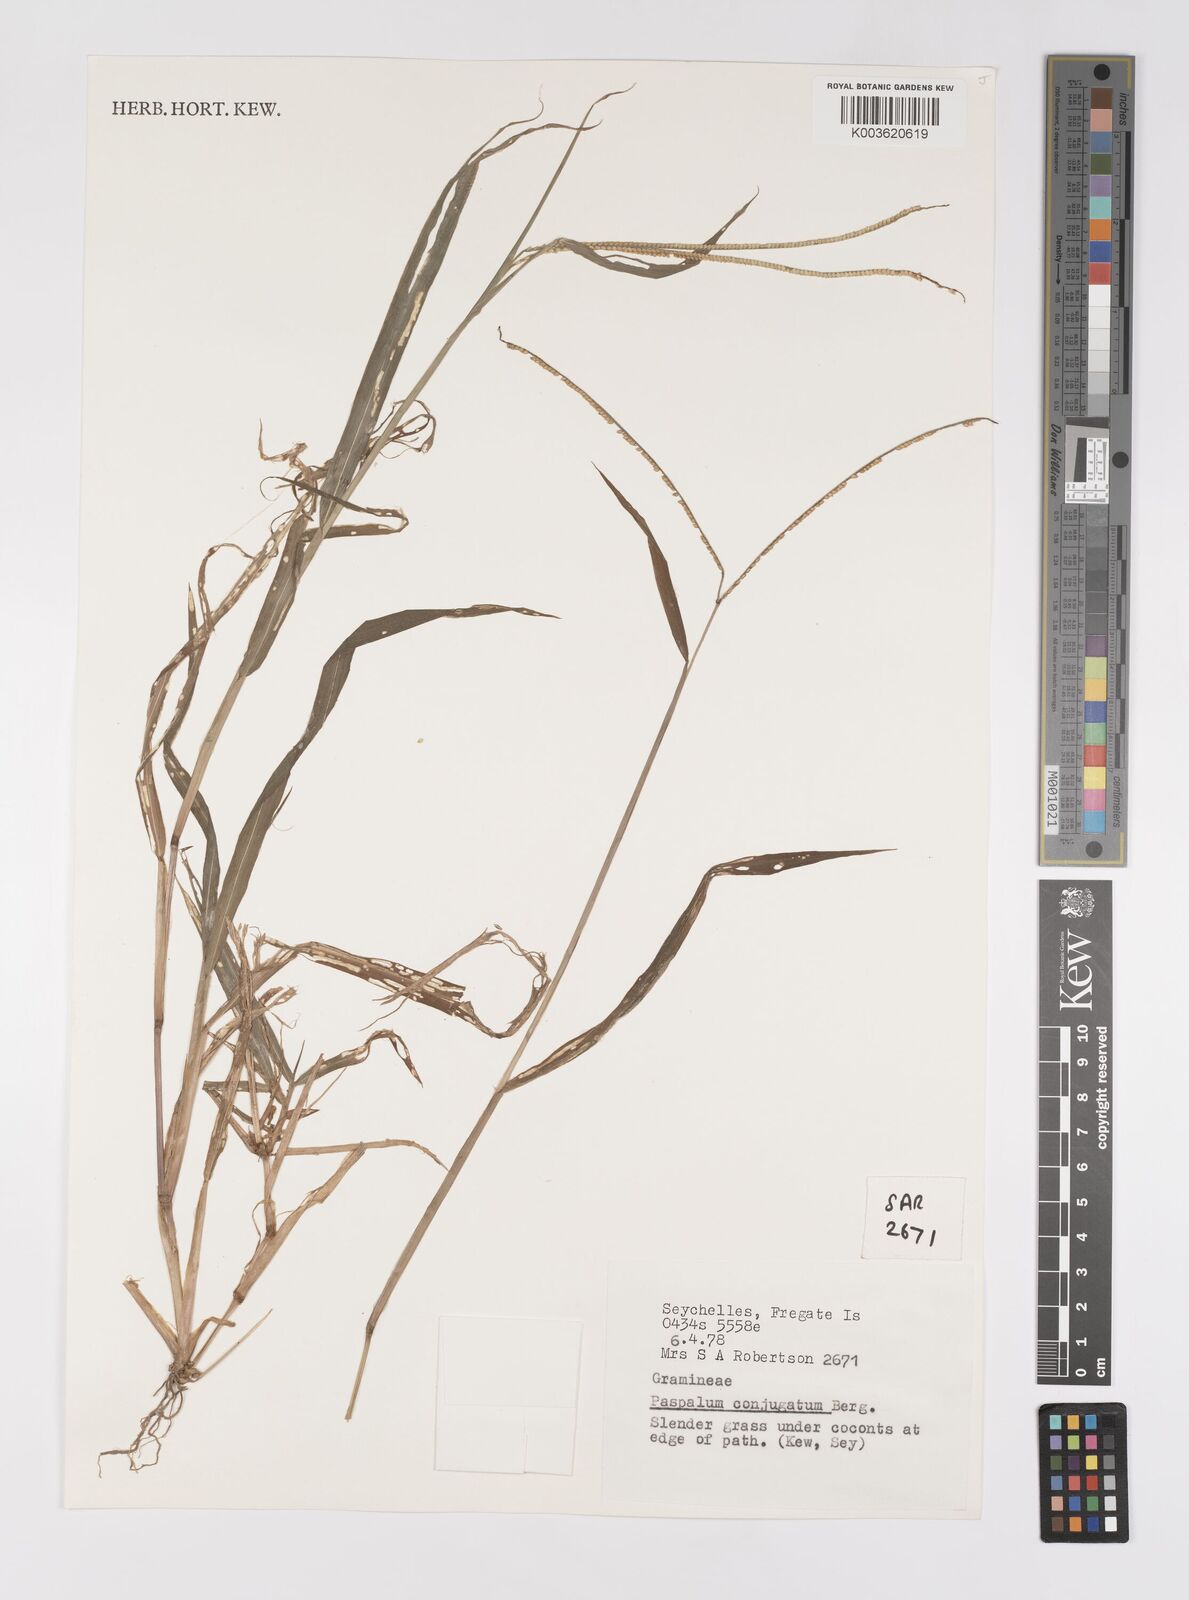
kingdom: Plantae
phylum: Tracheophyta
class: Liliopsida
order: Poales
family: Poaceae
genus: Paspalum
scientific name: Paspalum conjugatum
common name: Hilograss
